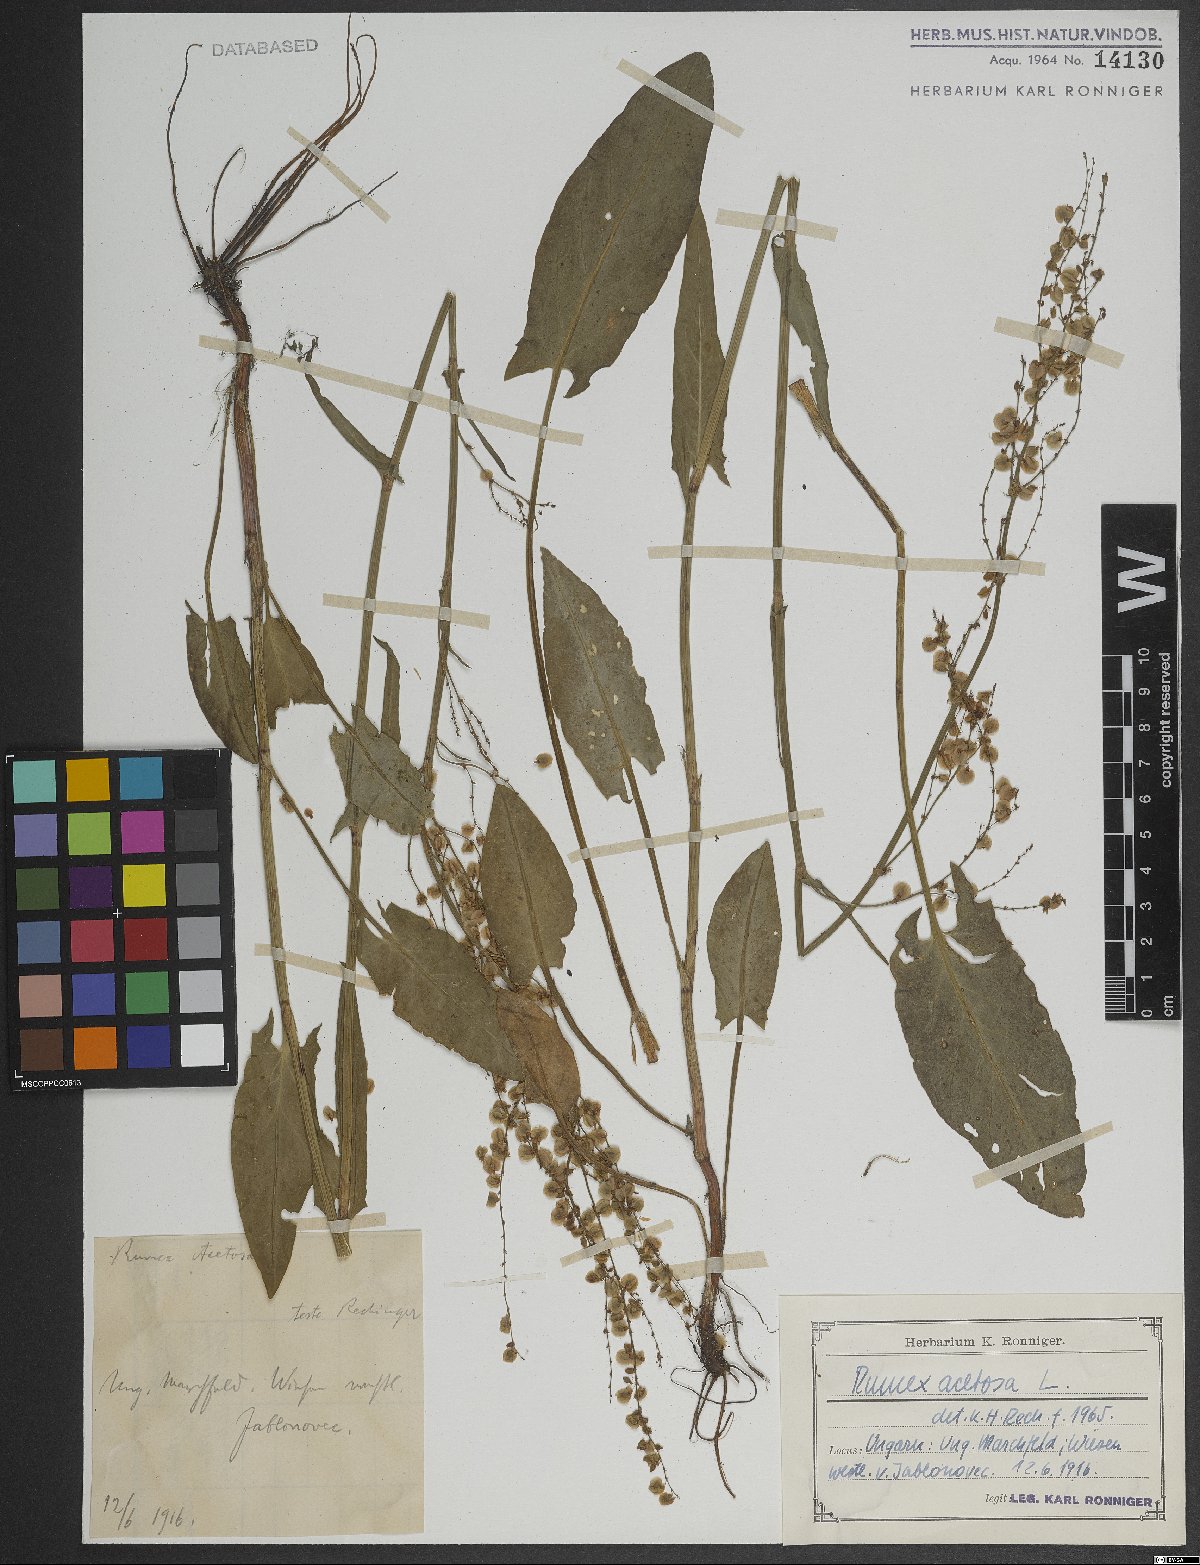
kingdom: Plantae
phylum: Tracheophyta
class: Magnoliopsida
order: Caryophyllales
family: Polygonaceae
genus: Rumex
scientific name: Rumex acetosa
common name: Garden sorrel
